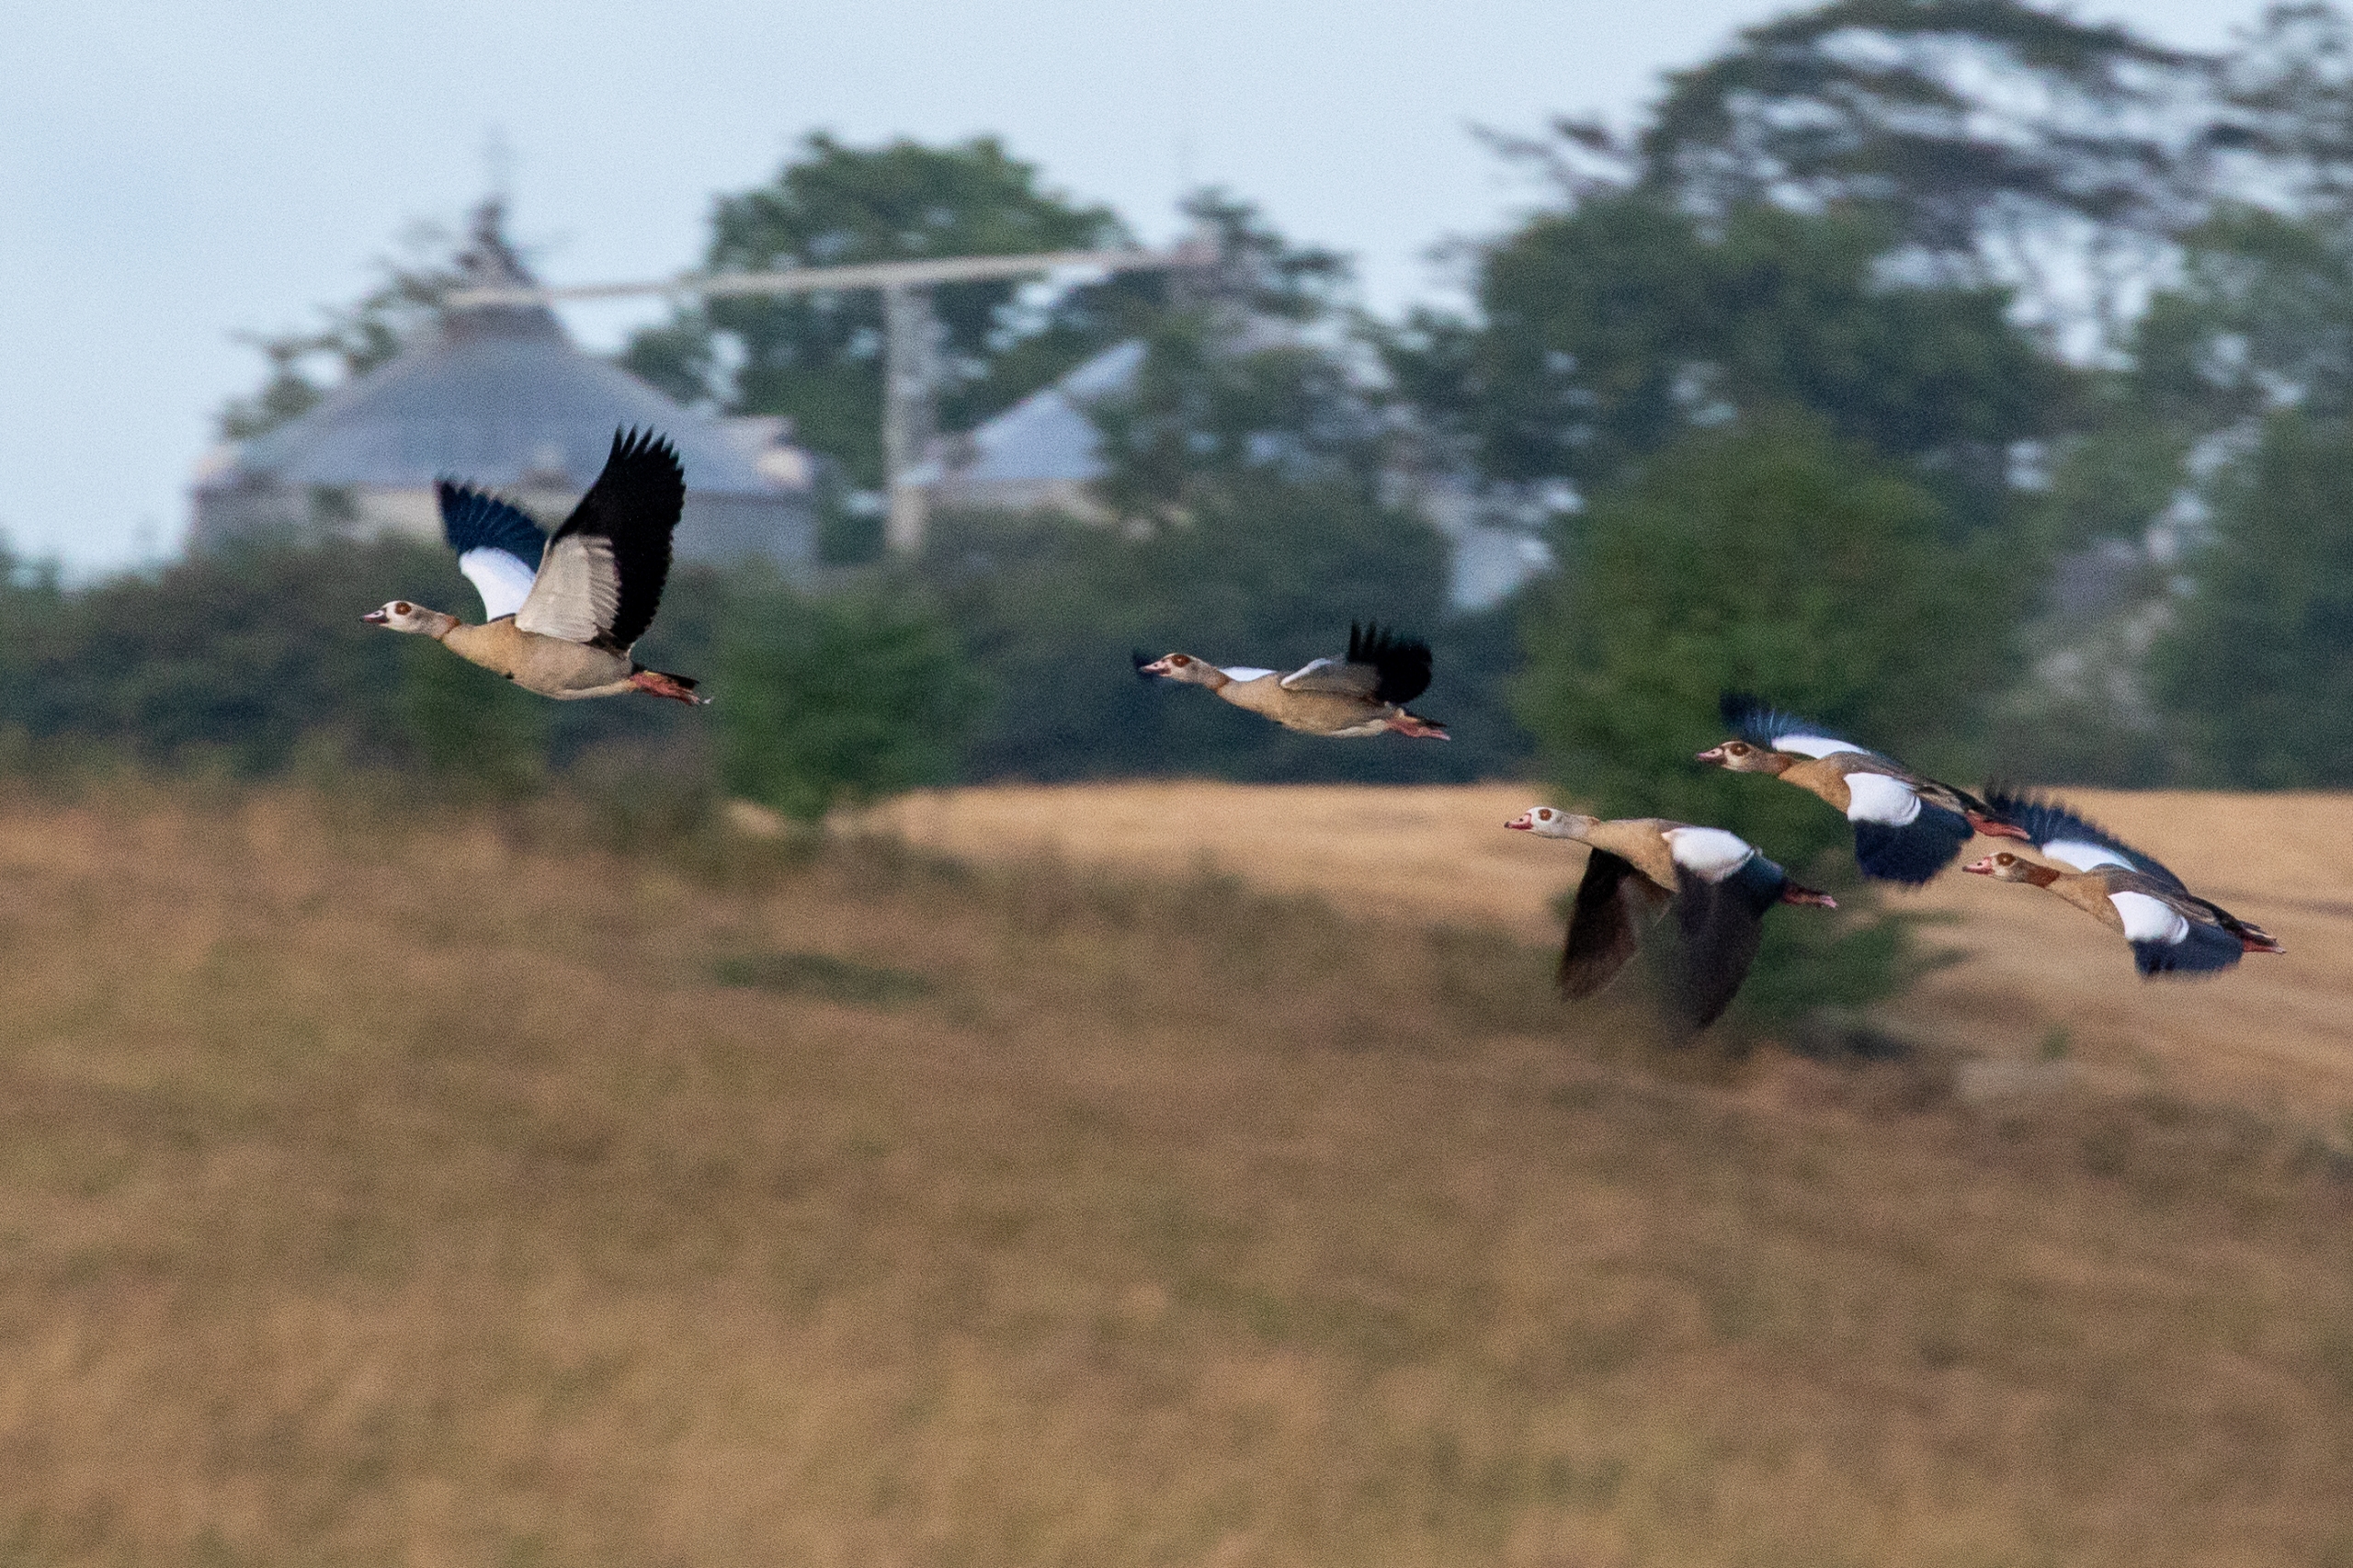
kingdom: Animalia
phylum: Chordata
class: Aves
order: Anseriformes
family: Anatidae
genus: Alopochen
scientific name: Alopochen aegyptiaca
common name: Nilgås
